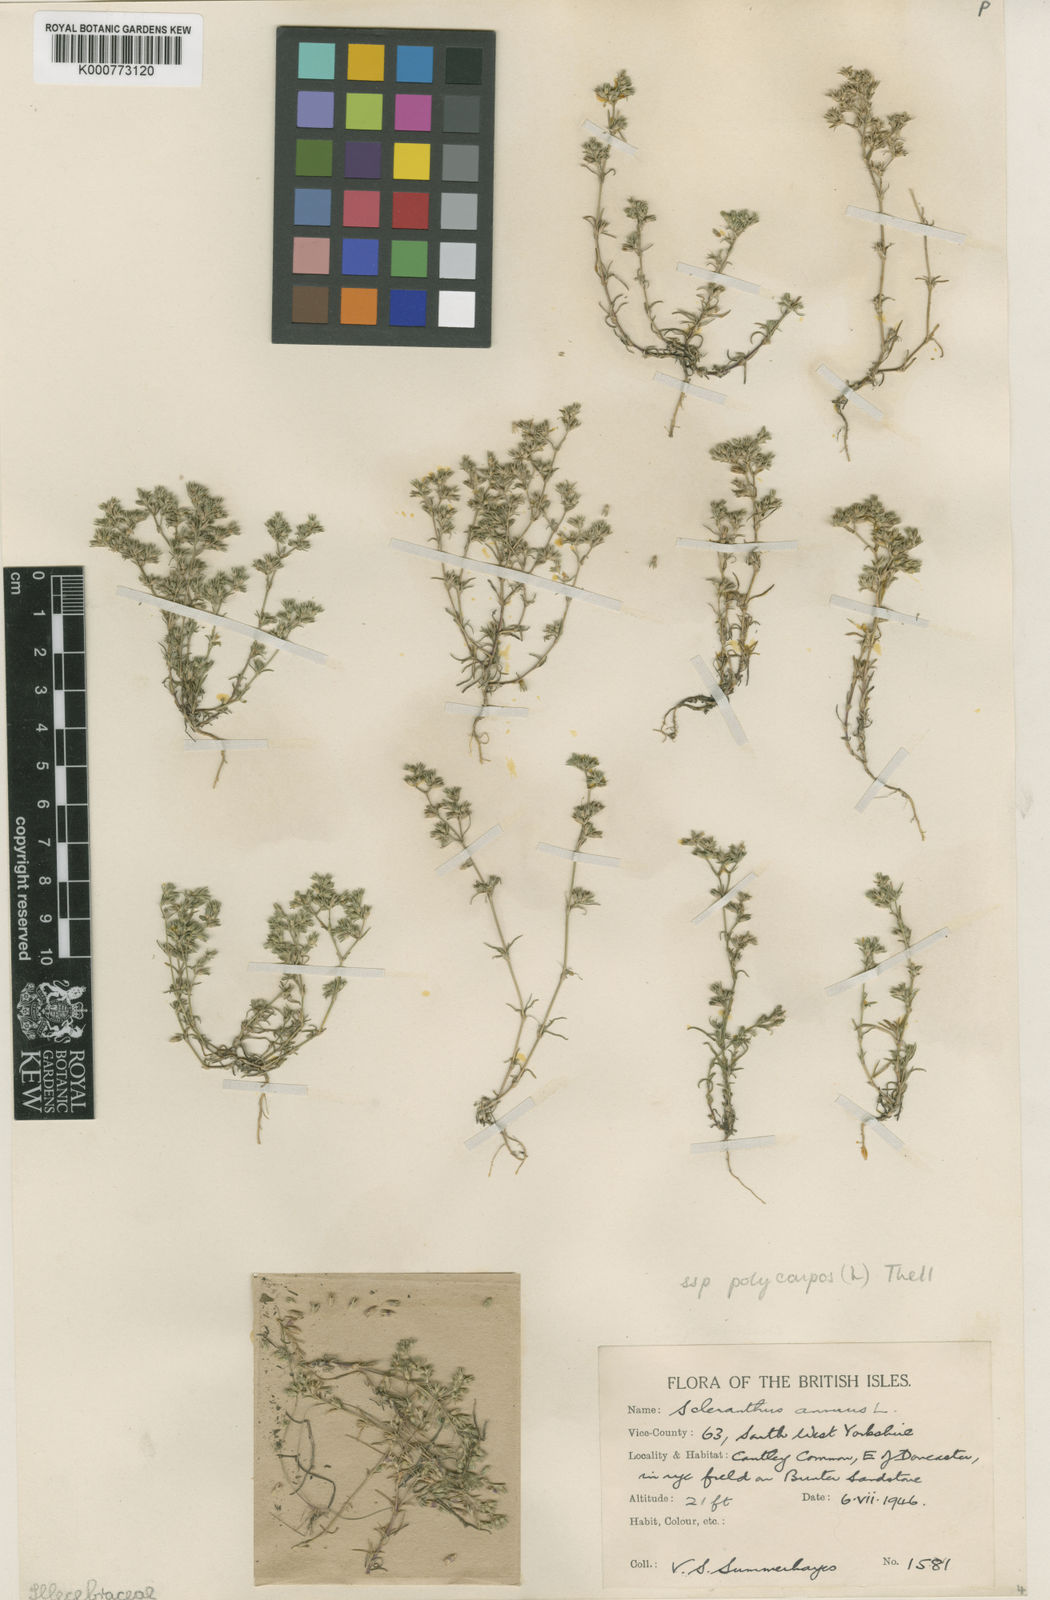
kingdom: Plantae
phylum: Tracheophyta
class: Magnoliopsida
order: Caryophyllales
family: Caryophyllaceae
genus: Scleranthus
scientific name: Scleranthus annuus
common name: Annual knawel
